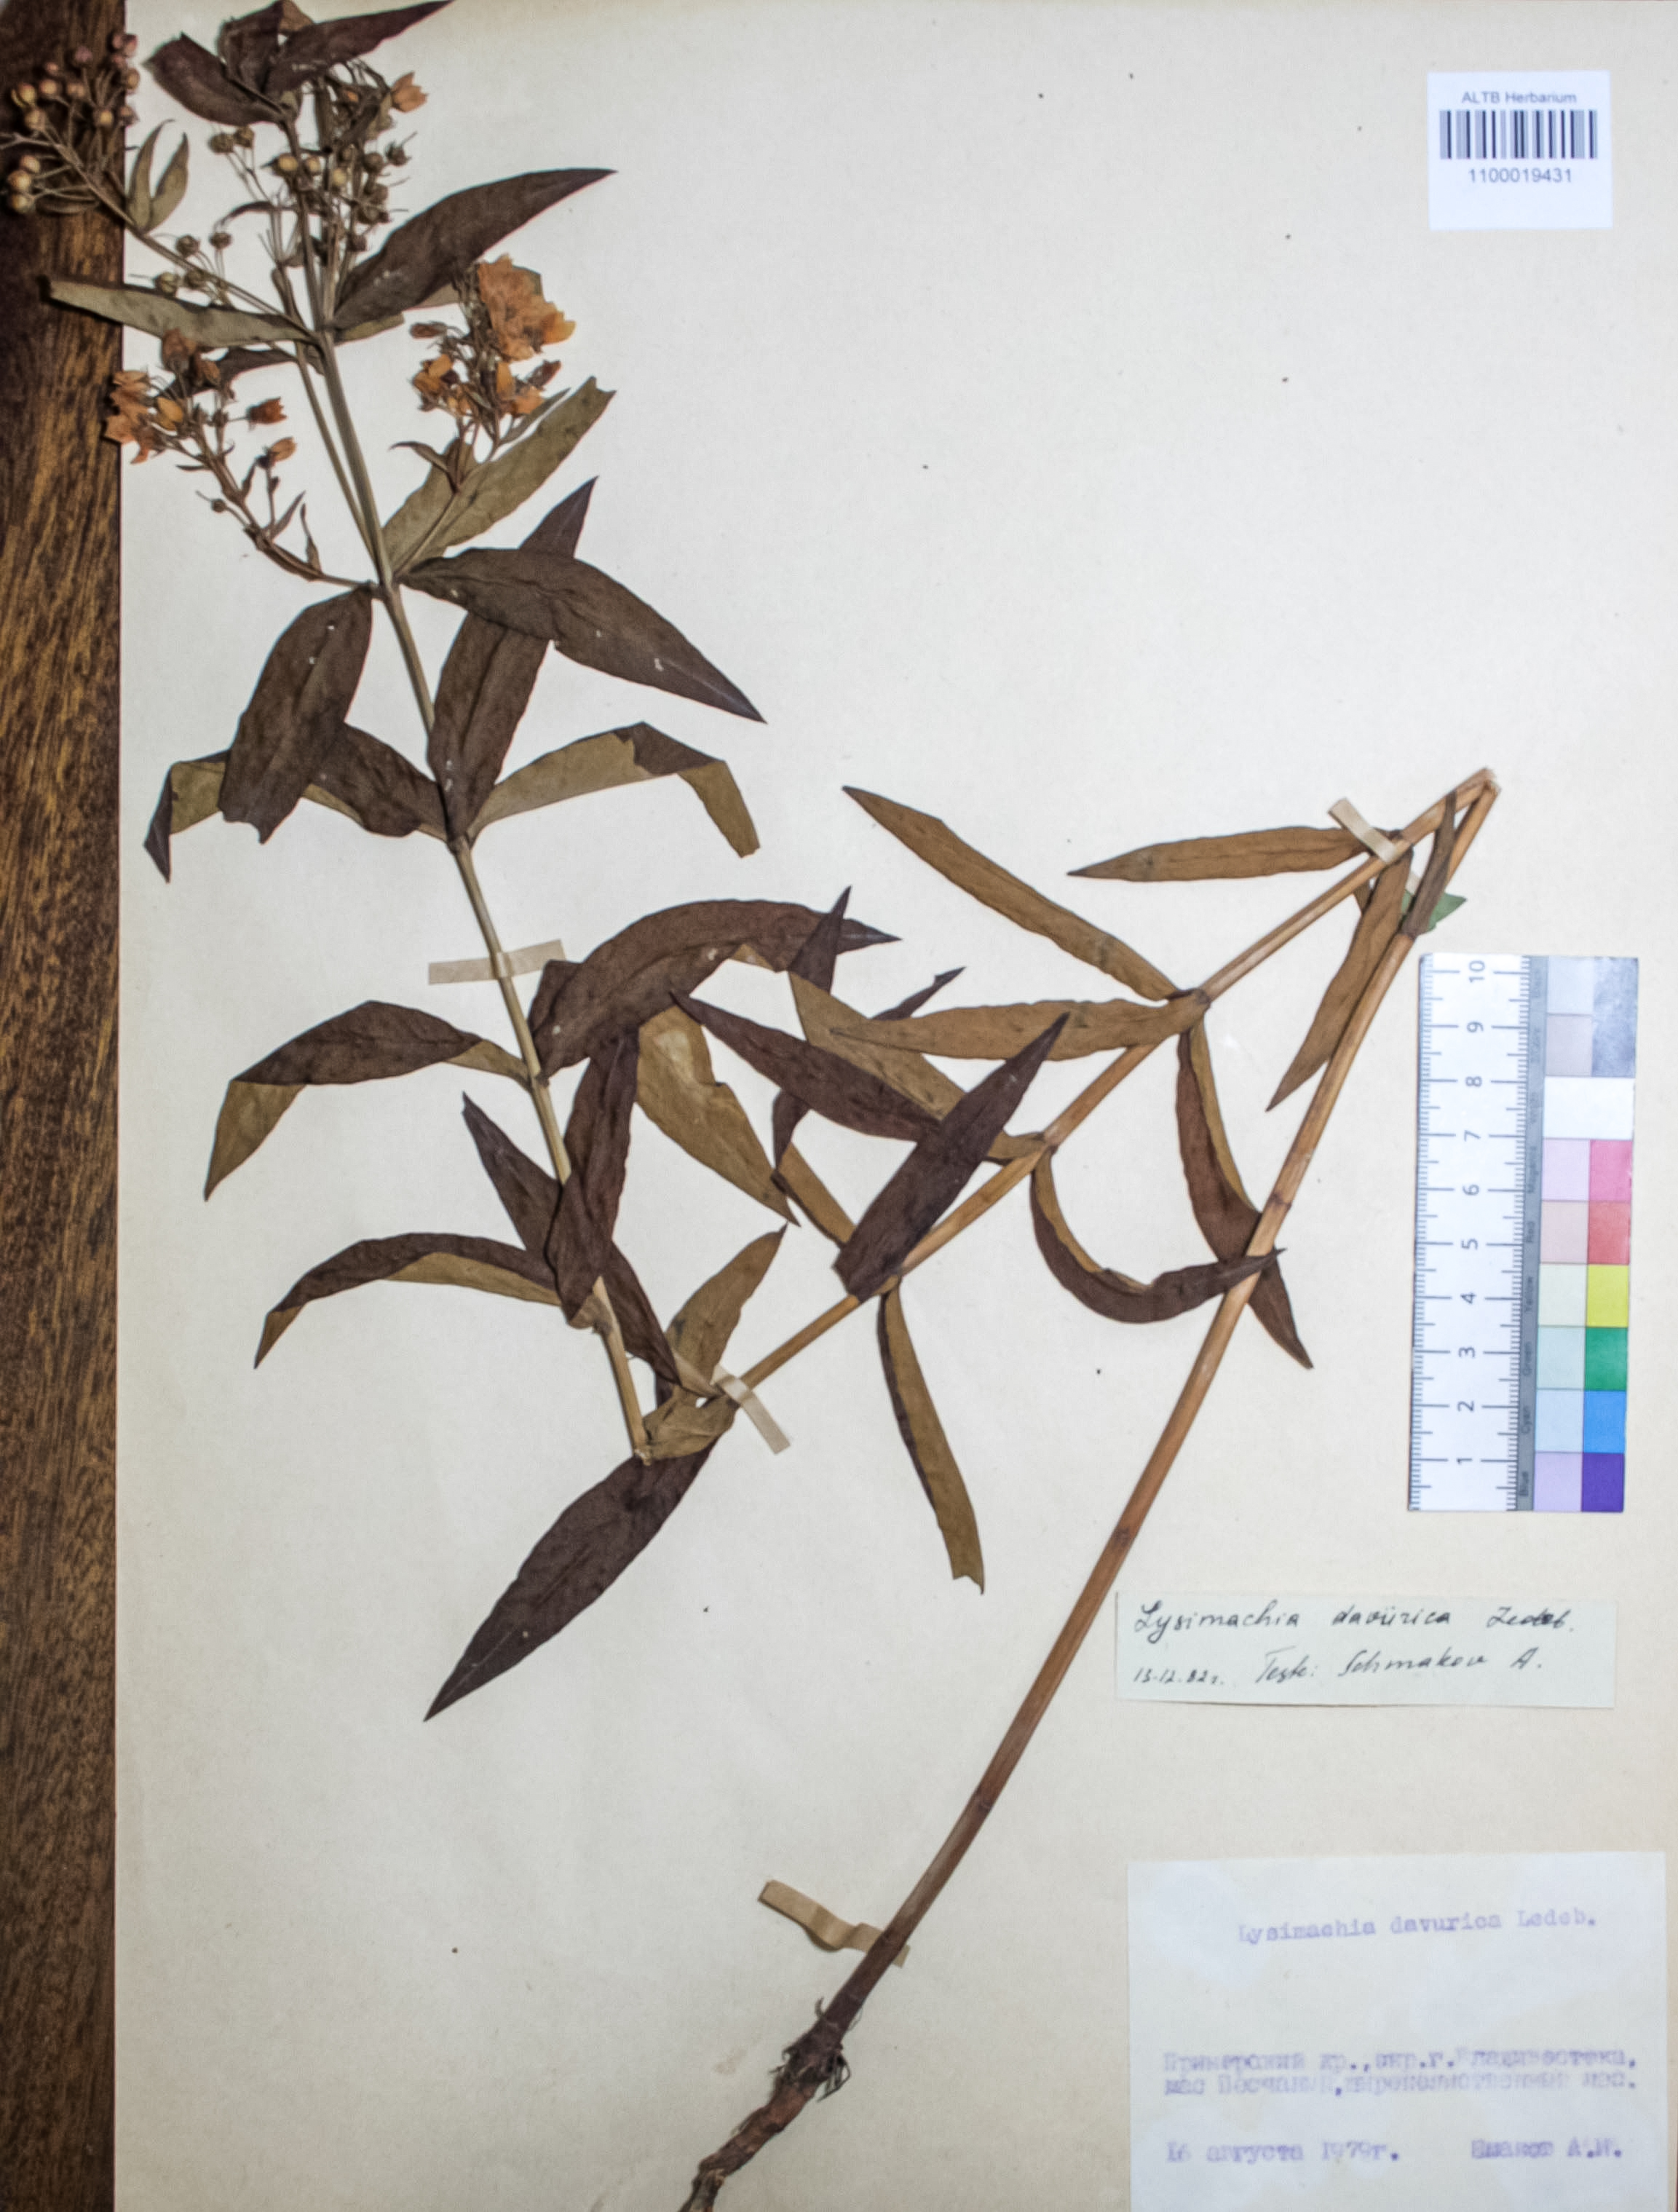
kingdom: Plantae
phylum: Tracheophyta
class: Magnoliopsida
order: Ericales
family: Primulaceae
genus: Lysimachia
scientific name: Lysimachia davurica
